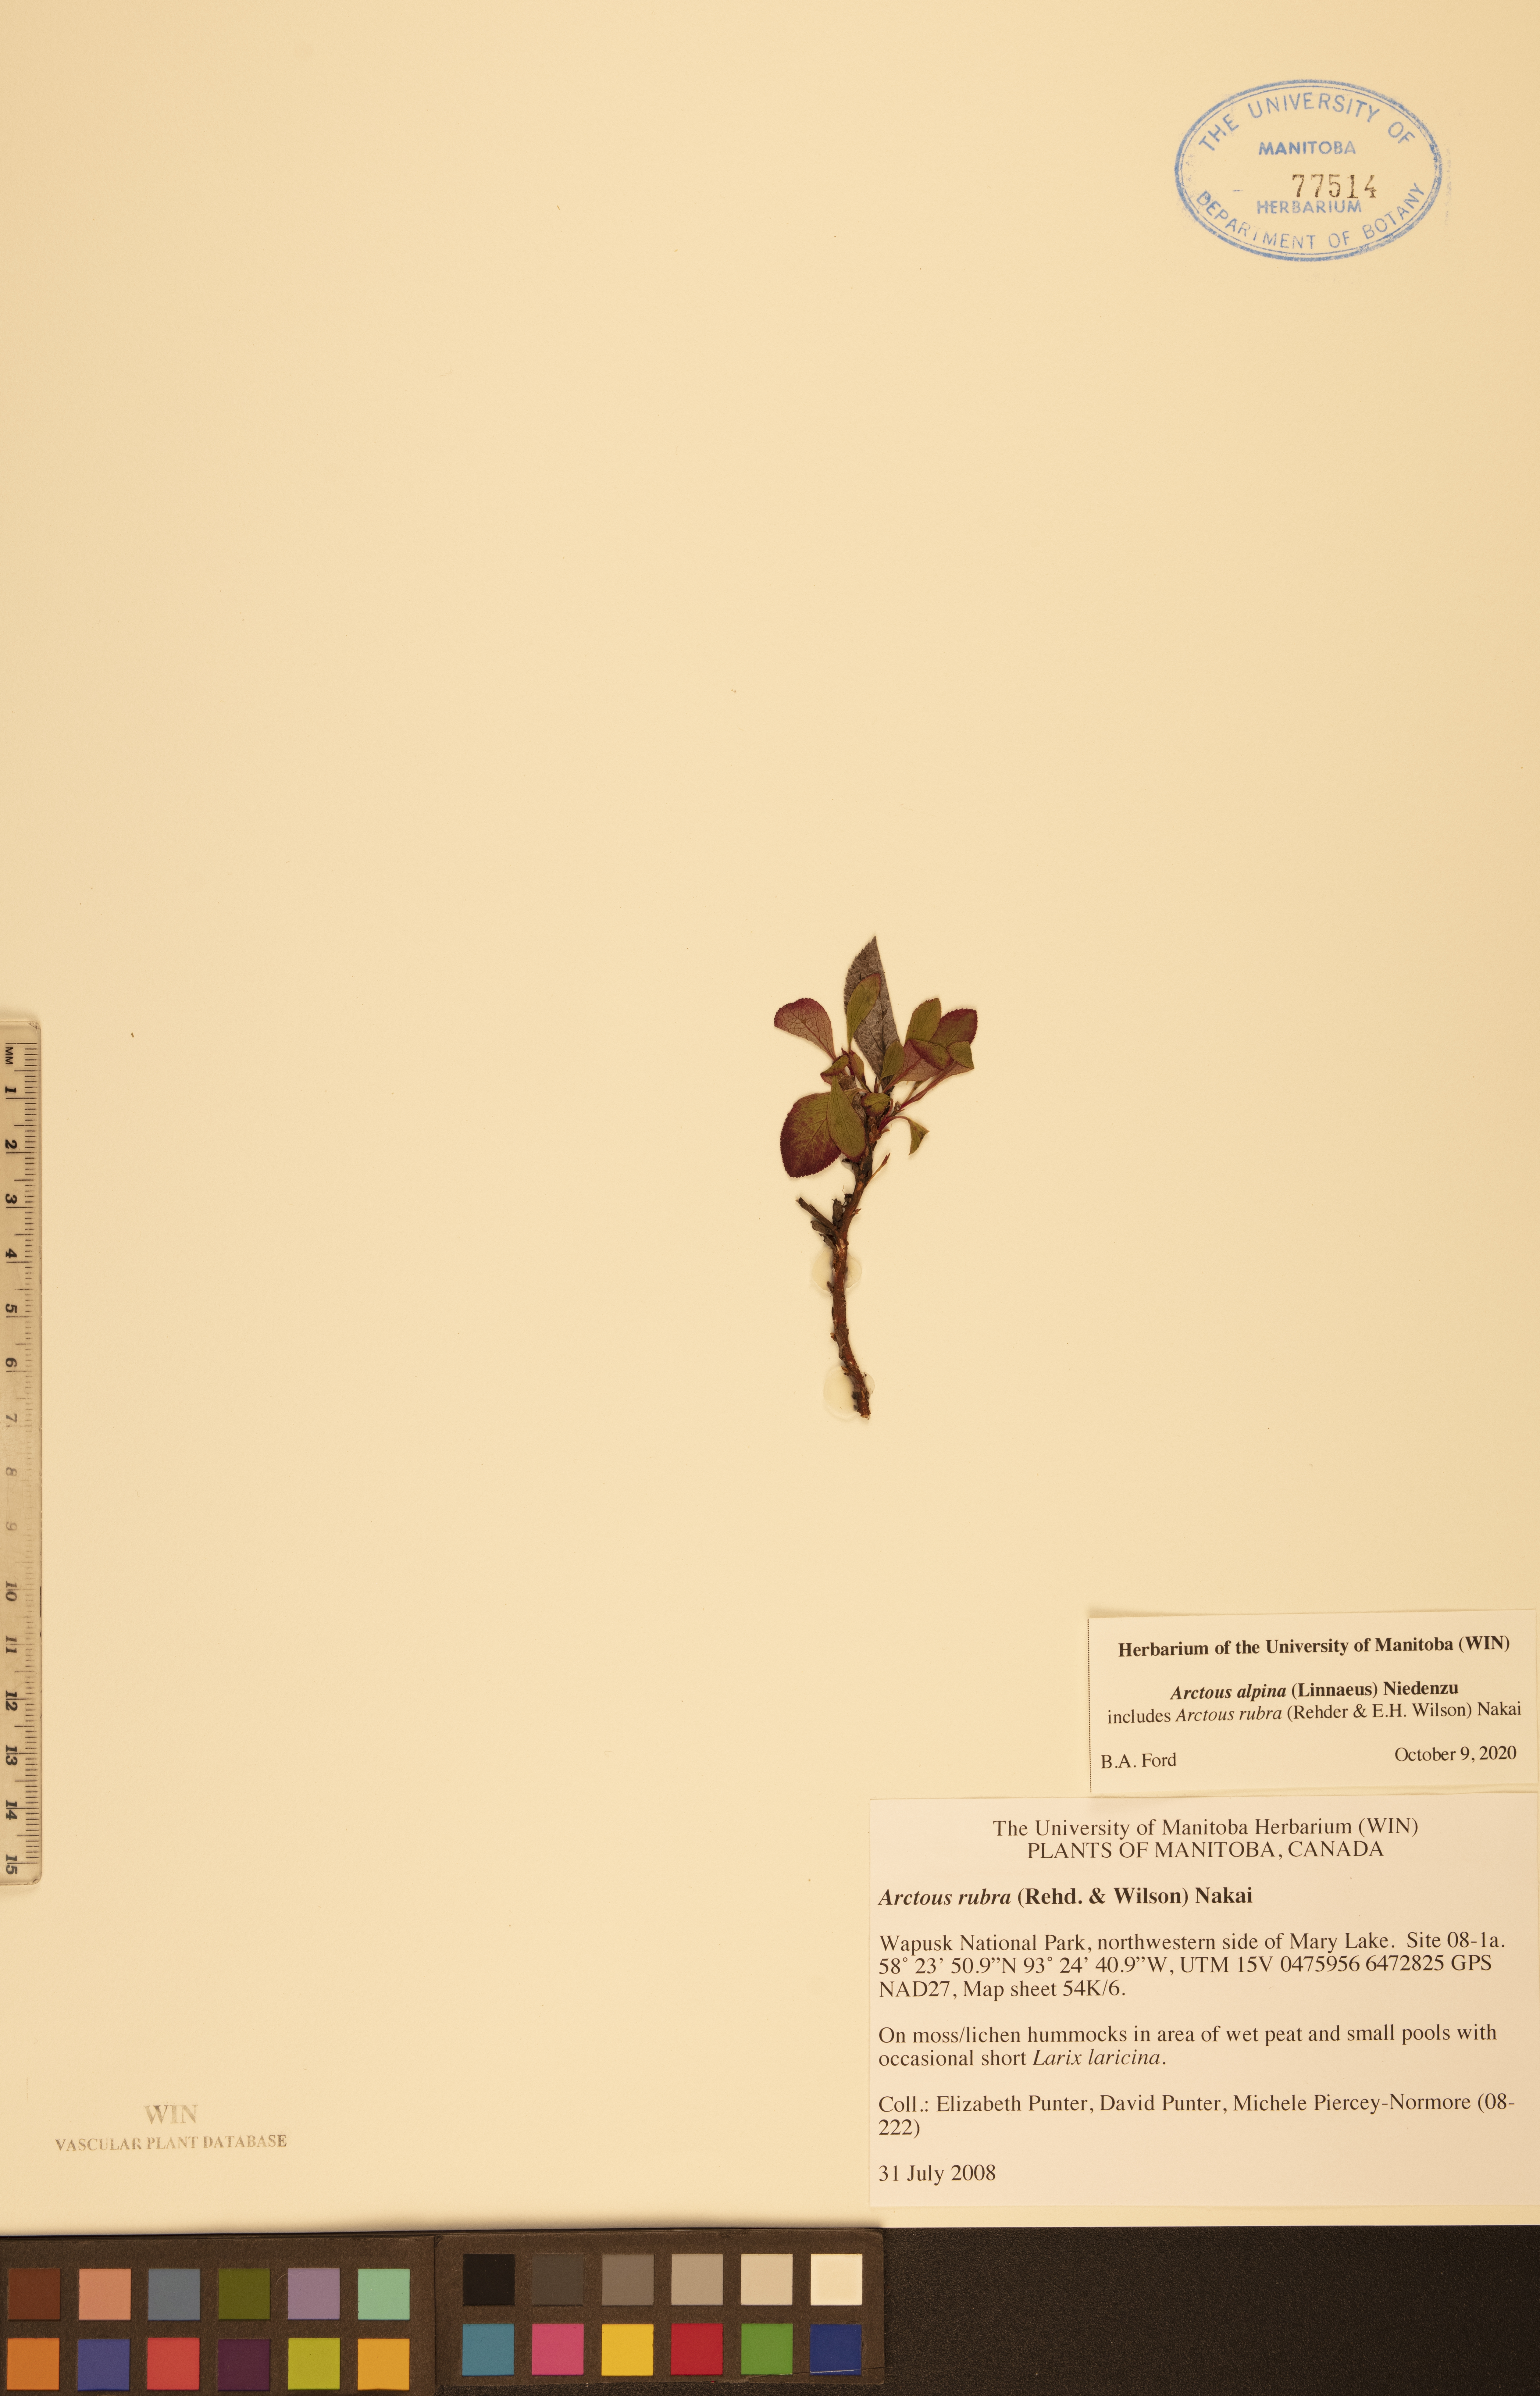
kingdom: Plantae
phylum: Tracheophyta
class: Magnoliopsida
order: Ericales
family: Ericaceae
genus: Arctostaphylos
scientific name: Arctostaphylos alpinus
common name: Alpine bearberry
